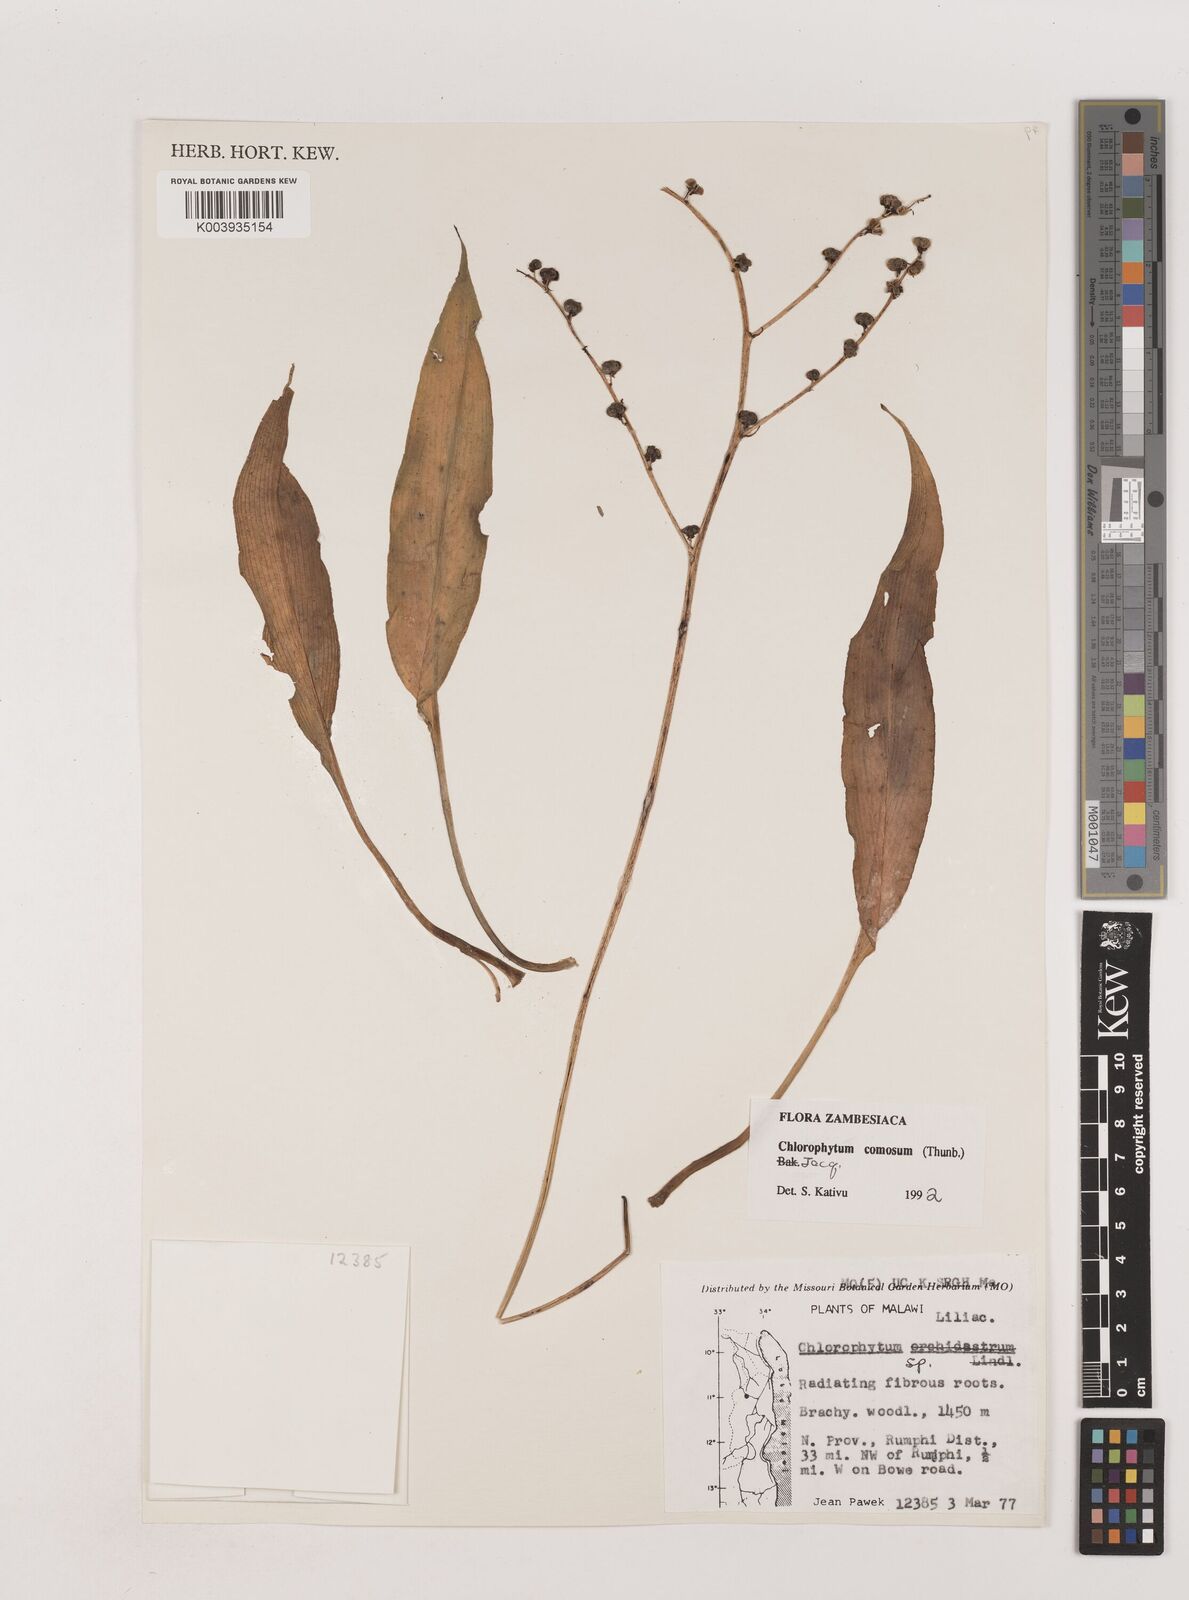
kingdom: Plantae
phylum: Tracheophyta
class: Liliopsida
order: Asparagales
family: Asparagaceae
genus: Chlorophytum
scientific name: Chlorophytum comosum
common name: Spider plant
